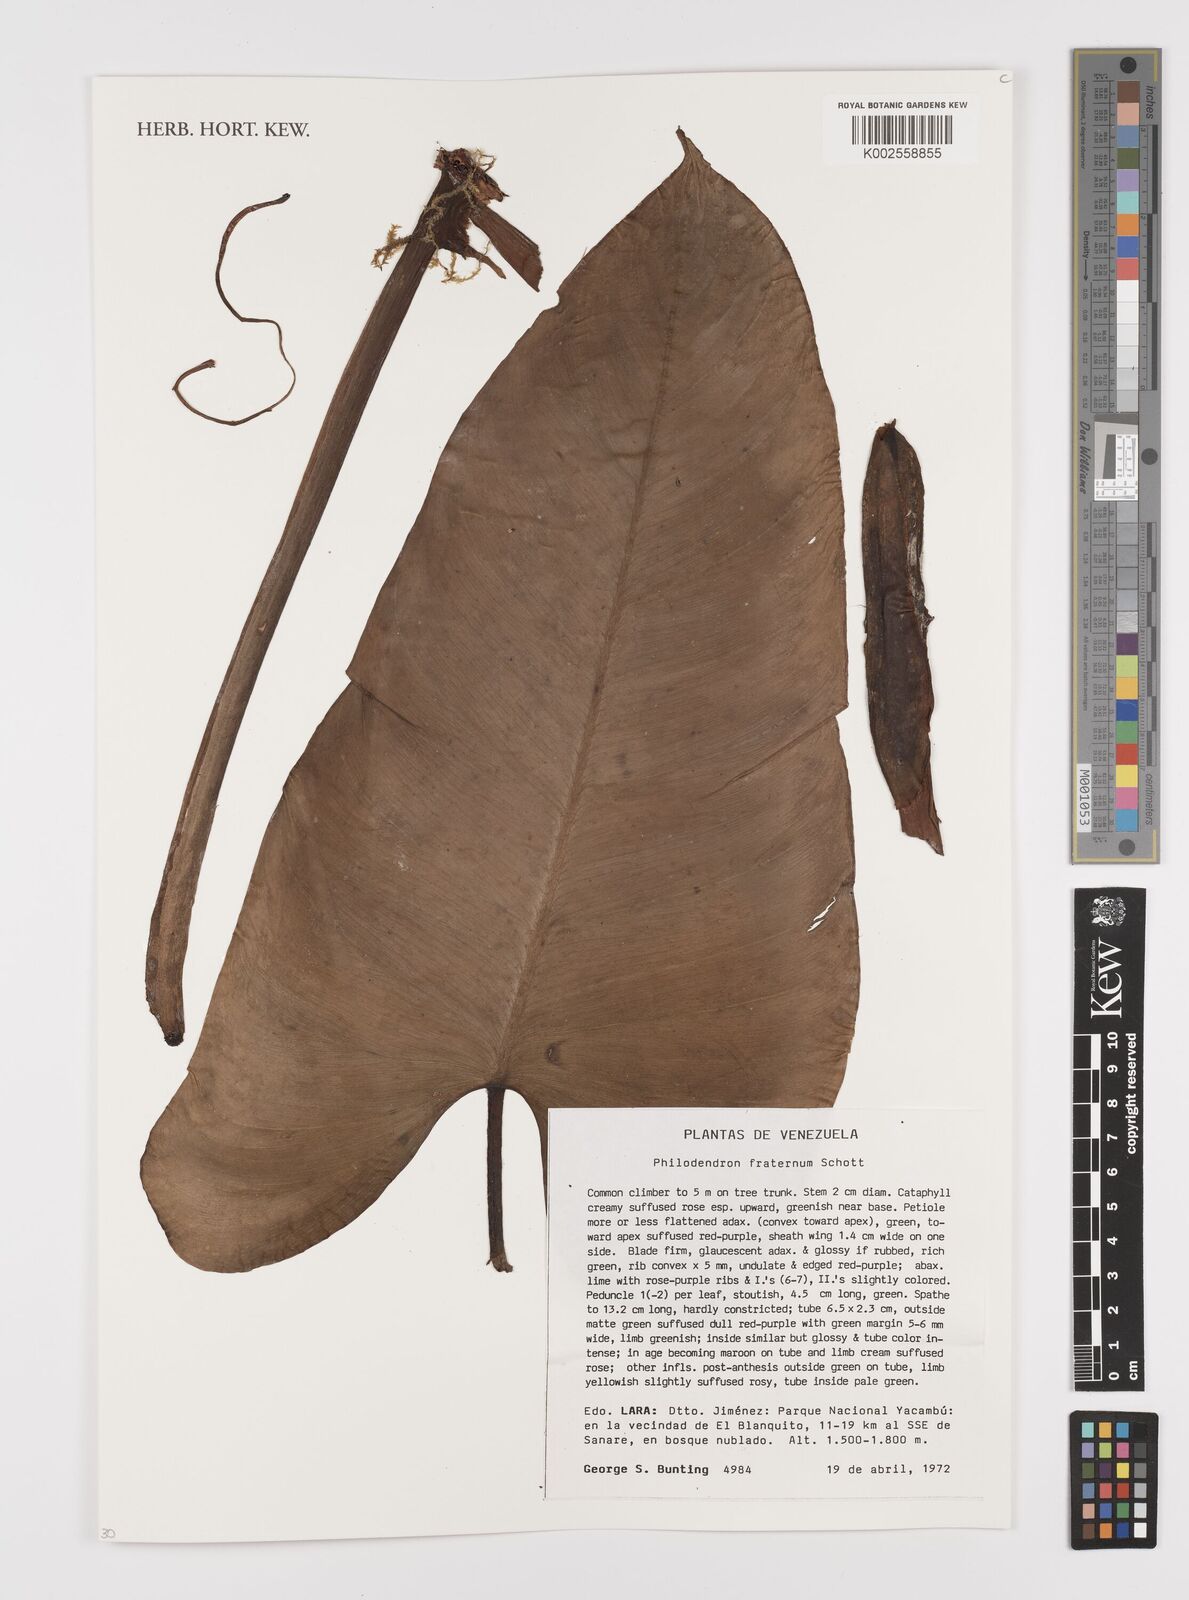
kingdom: Plantae
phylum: Tracheophyta
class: Liliopsida
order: Alismatales
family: Araceae
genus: Philodendron
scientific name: Philodendron fraternum
